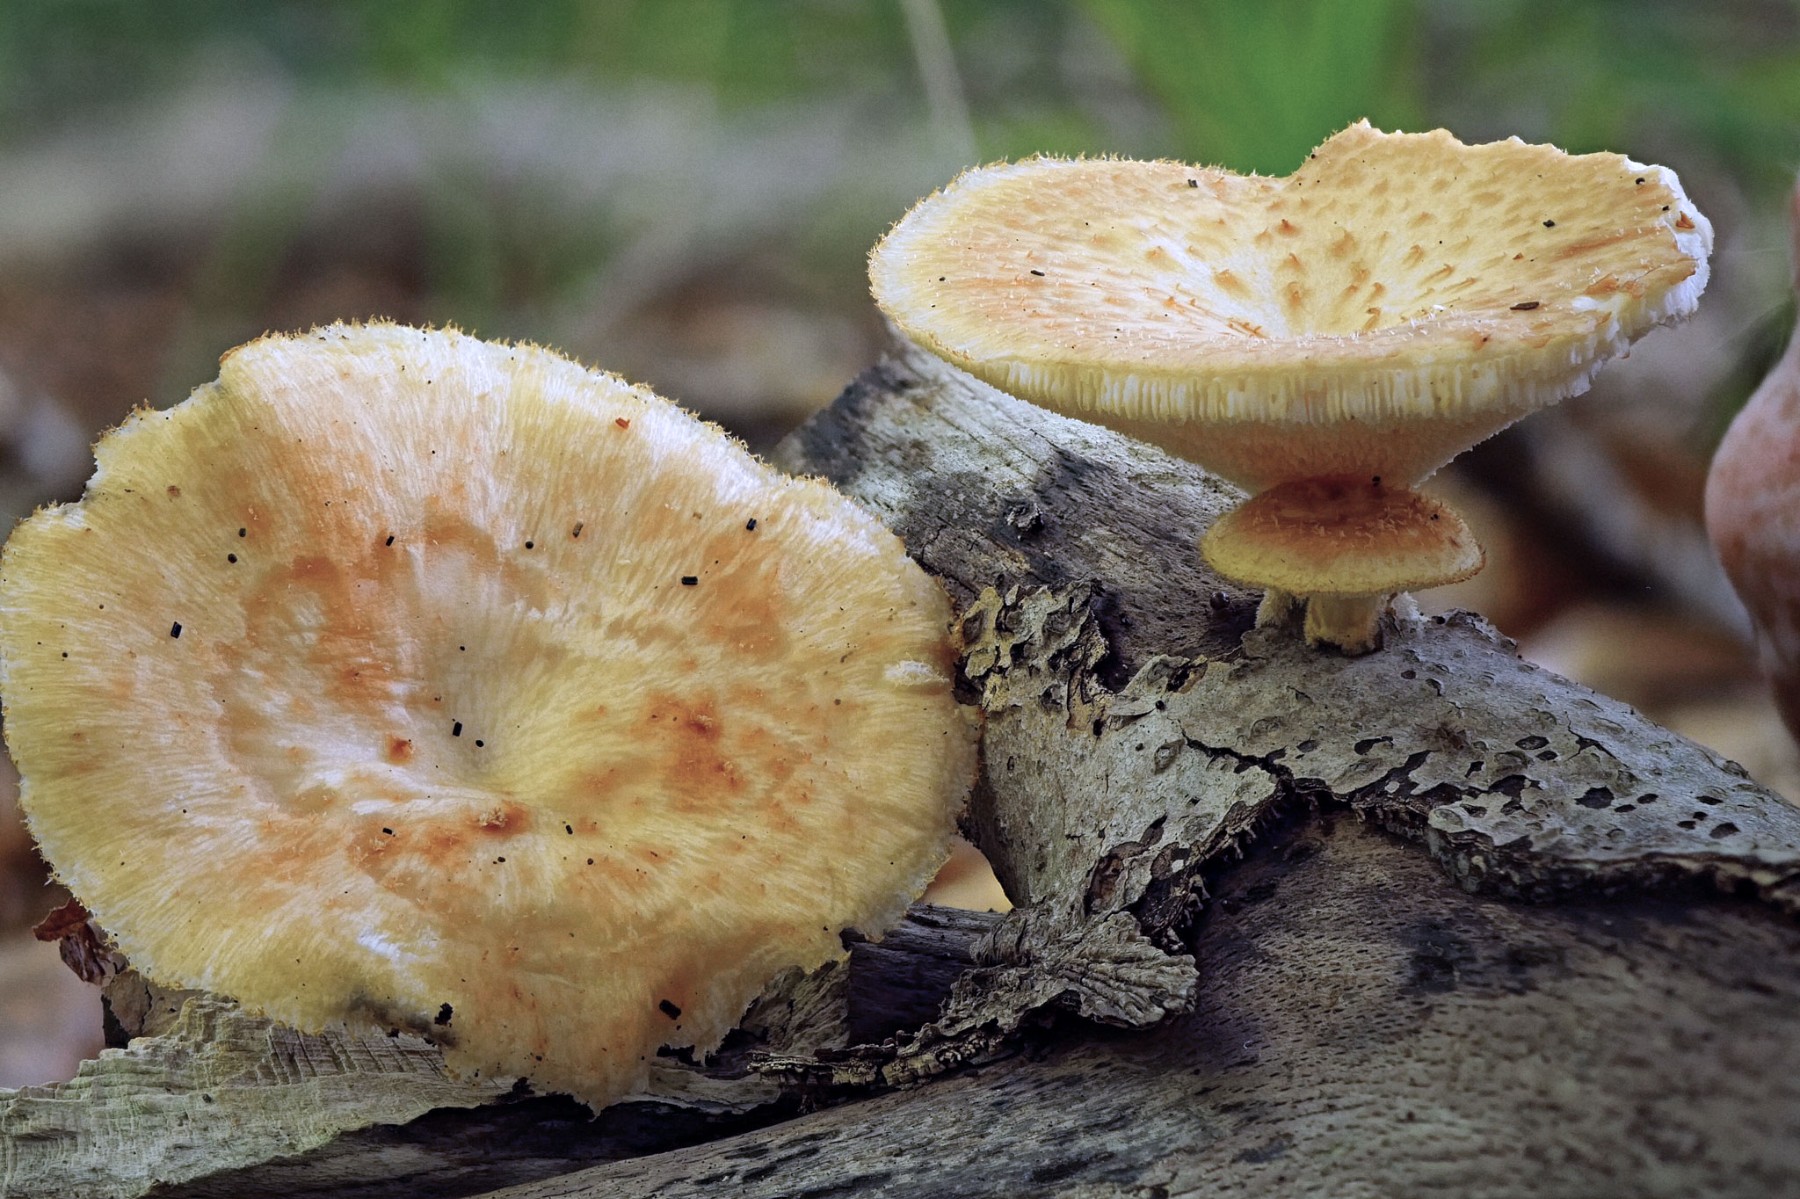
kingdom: Fungi
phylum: Basidiomycota
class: Agaricomycetes
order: Polyporales
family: Polyporaceae
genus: Polyporus
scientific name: Polyporus tuberaster
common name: knoldet stilkporesvamp
